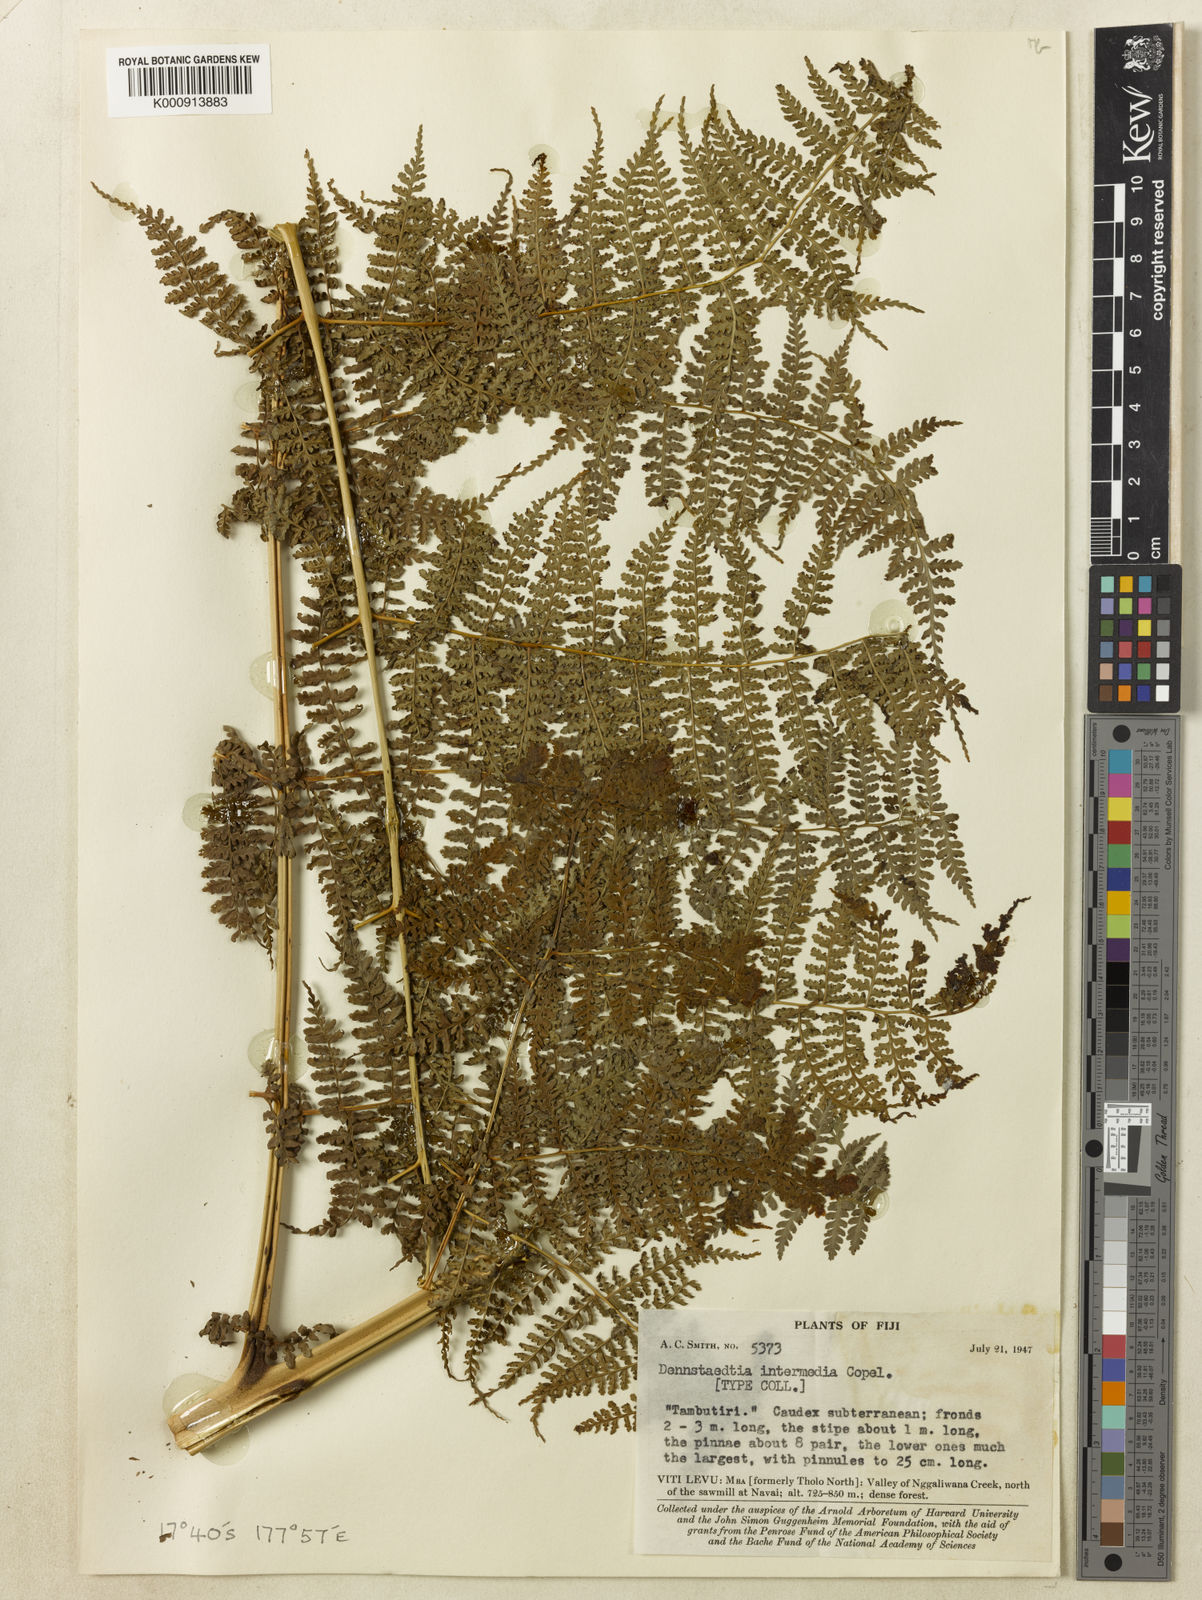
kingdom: Plantae
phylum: Tracheophyta
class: Polypodiopsida
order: Polypodiales
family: Dennstaedtiaceae
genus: Dennstaedtia
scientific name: Dennstaedtia inermis
